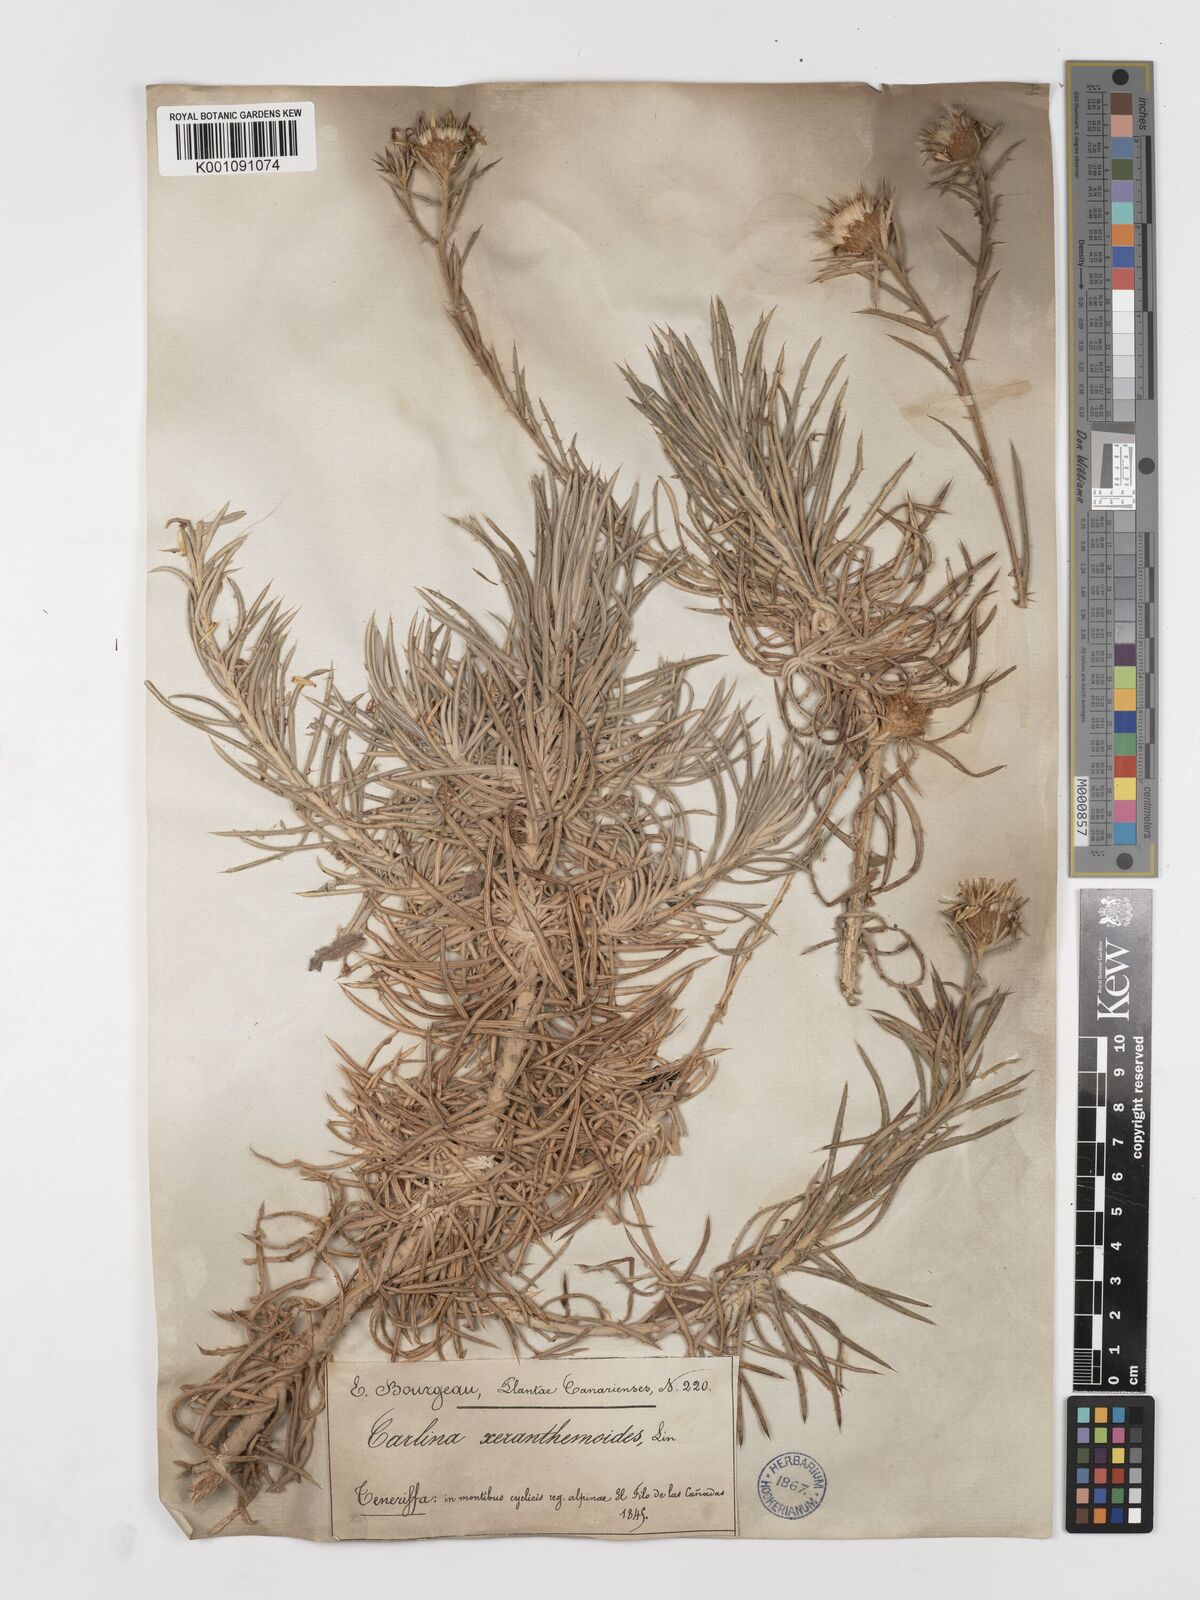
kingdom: Plantae
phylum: Tracheophyta
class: Magnoliopsida
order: Asterales
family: Asteraceae
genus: Carlina
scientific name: Carlina xeranthemoides
